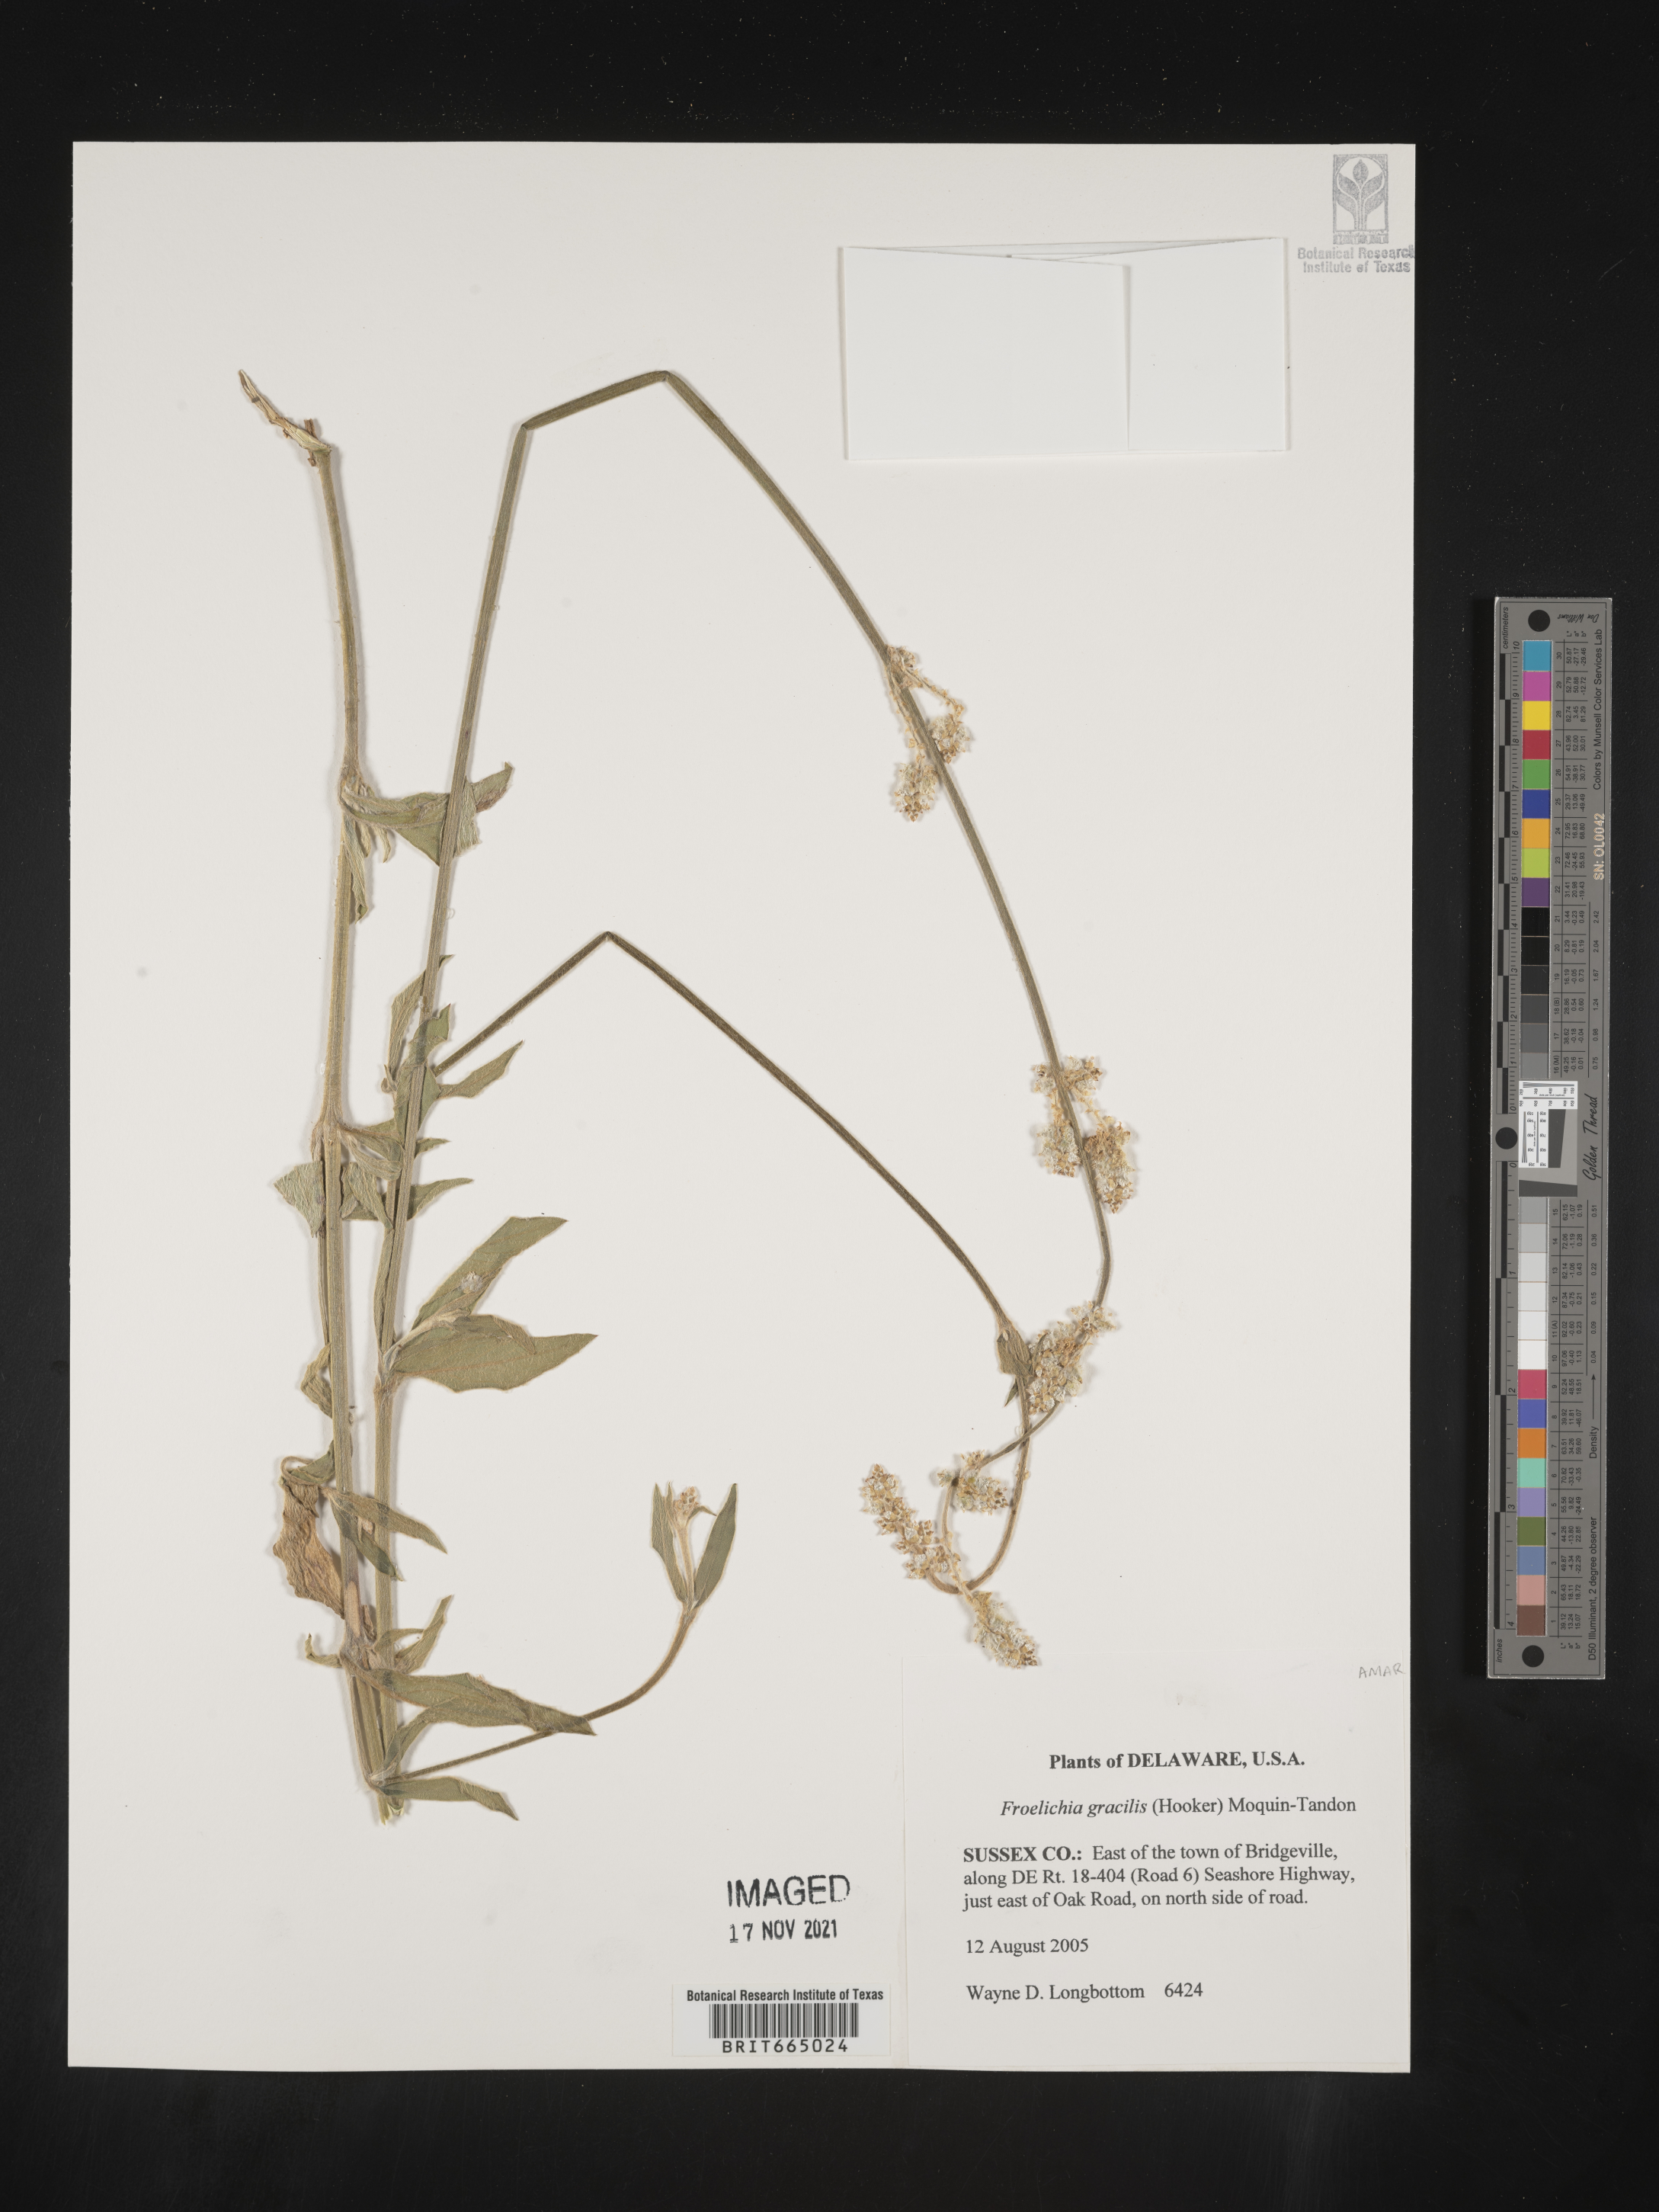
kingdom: Plantae
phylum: Tracheophyta
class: Magnoliopsida
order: Caryophyllales
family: Amaranthaceae
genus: Froelichia
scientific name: Froelichia gracilis
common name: Slender cottonweed
